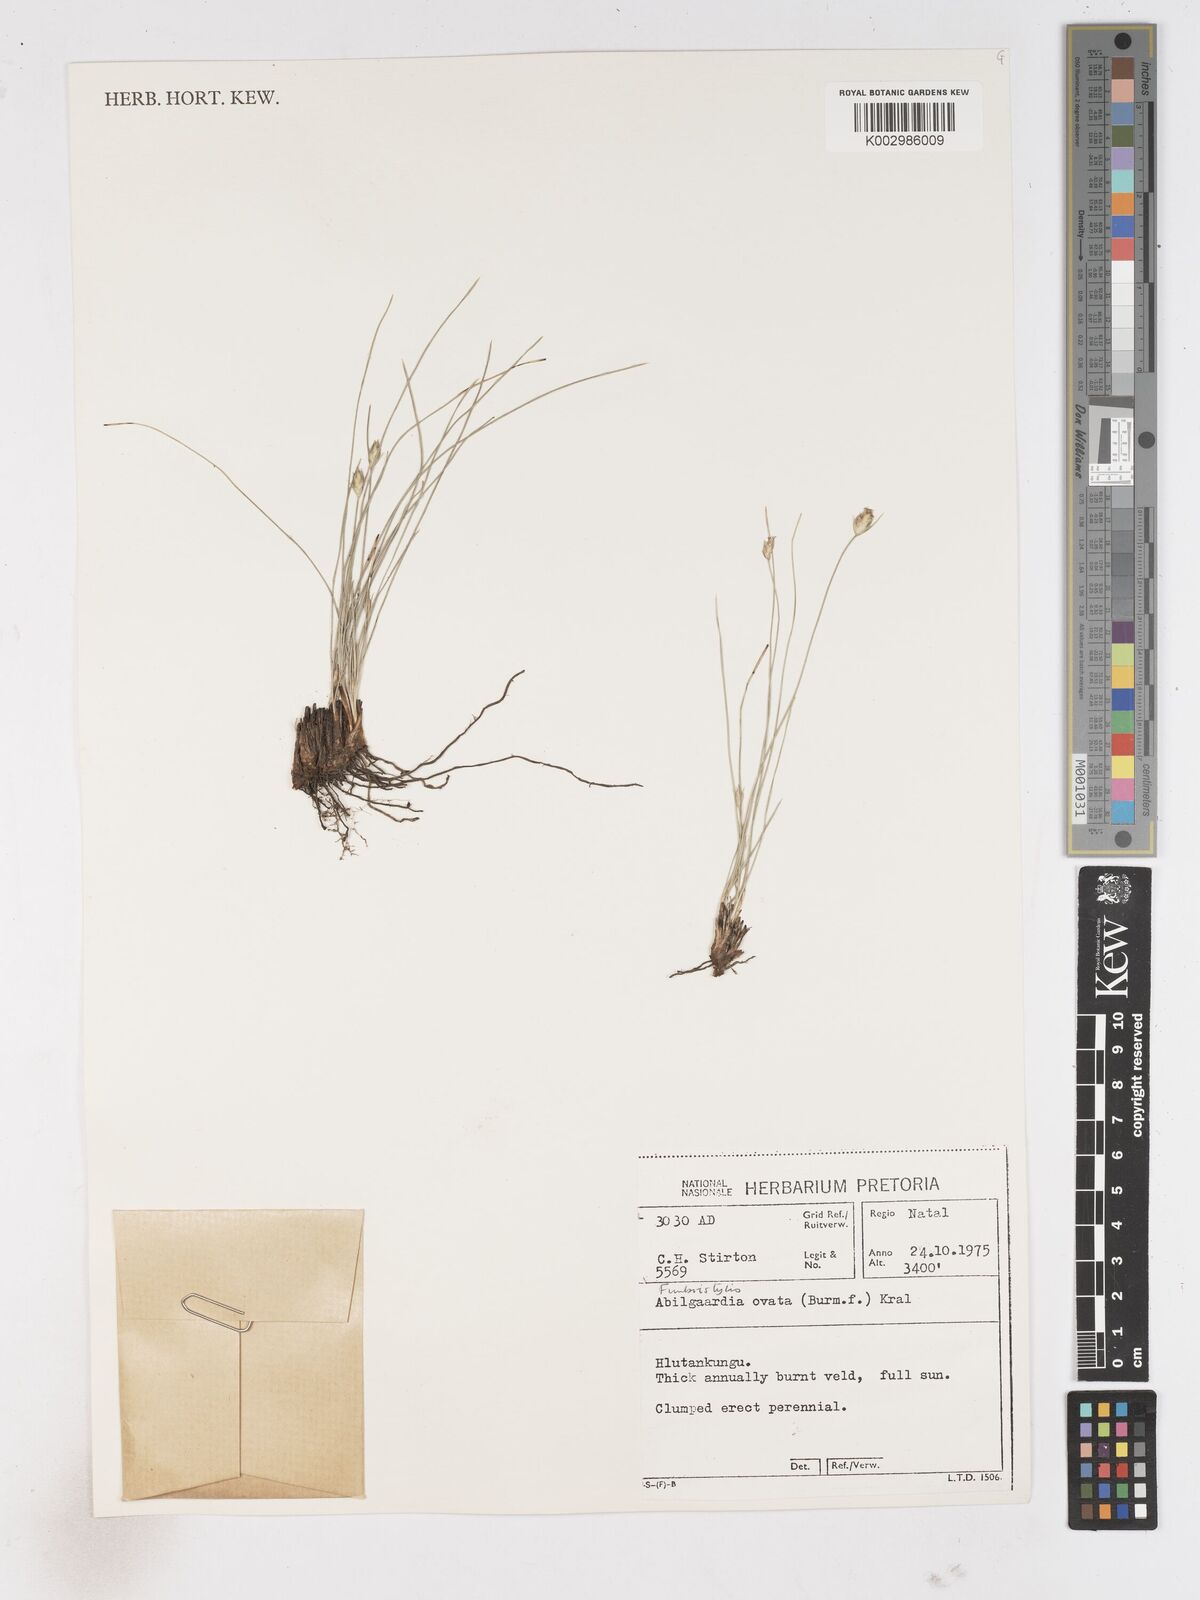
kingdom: Plantae
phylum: Tracheophyta
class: Liliopsida
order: Poales
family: Cyperaceae
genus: Abildgaardia
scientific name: Abildgaardia ovata
